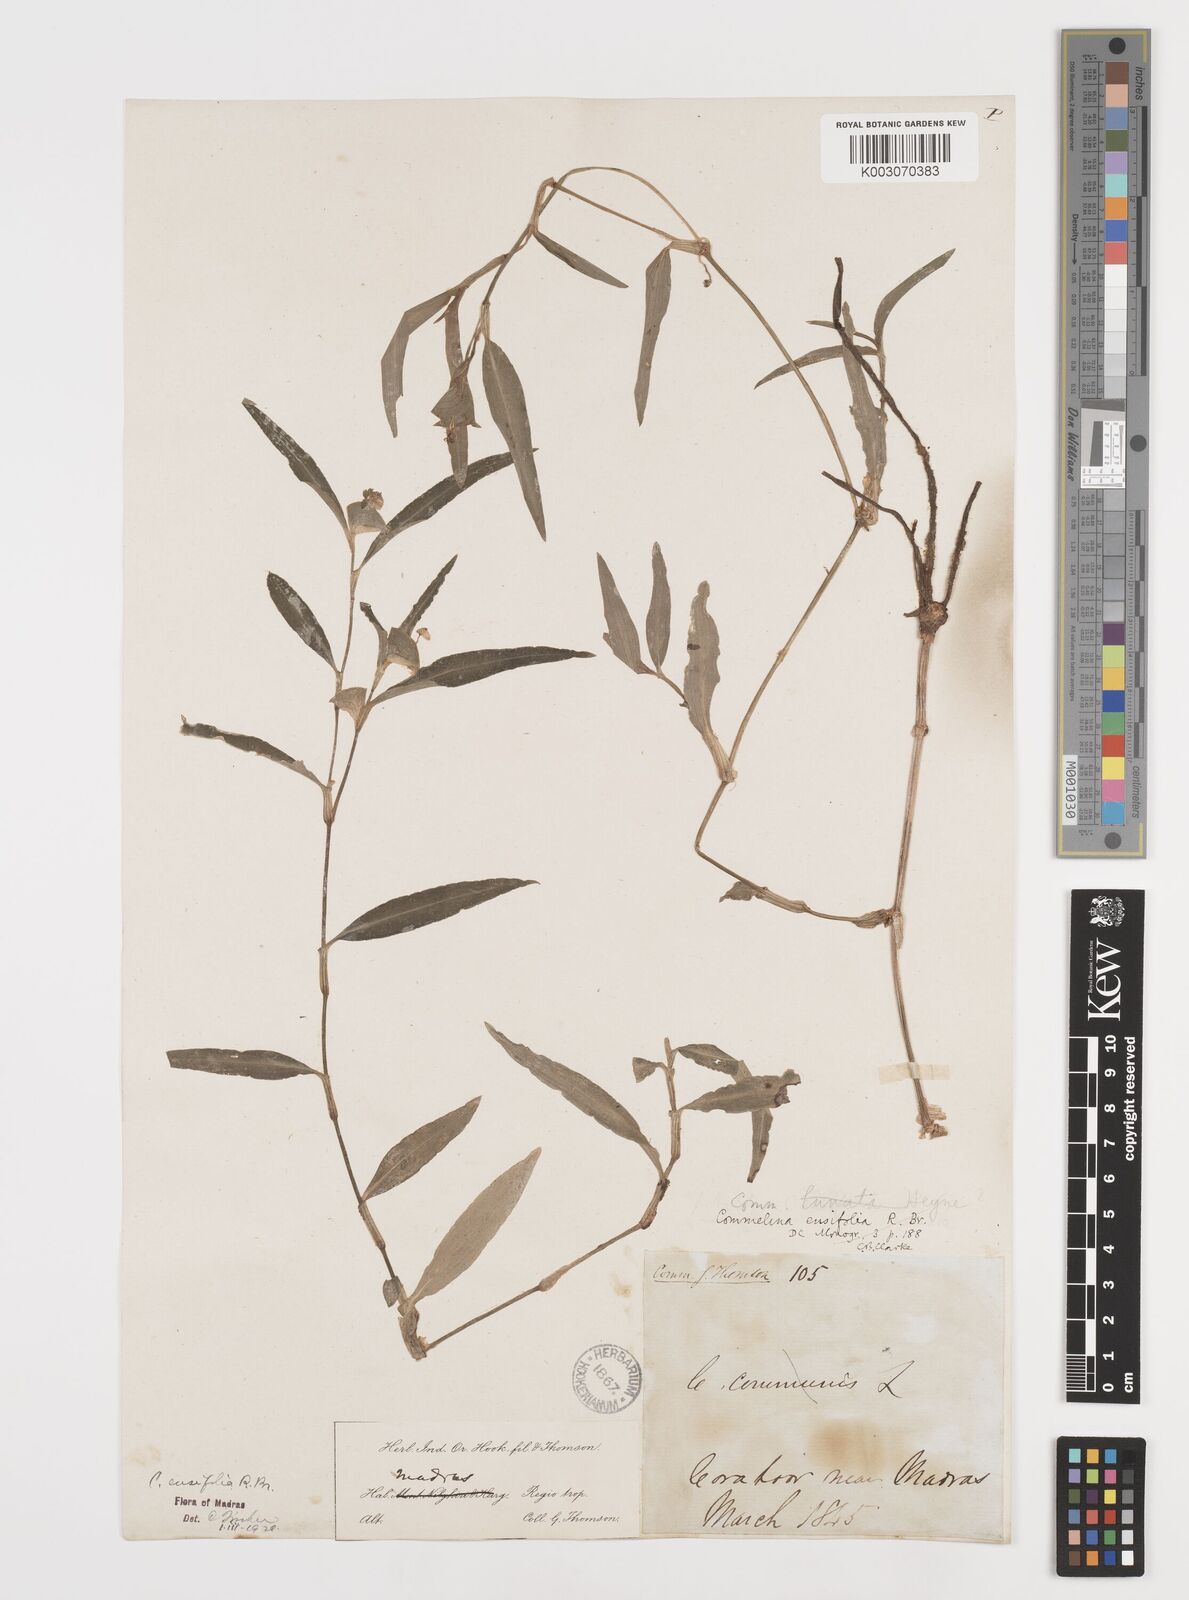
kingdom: Plantae
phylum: Tracheophyta
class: Liliopsida
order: Commelinales
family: Commelinaceae
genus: Commelina
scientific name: Commelina ensifolia
